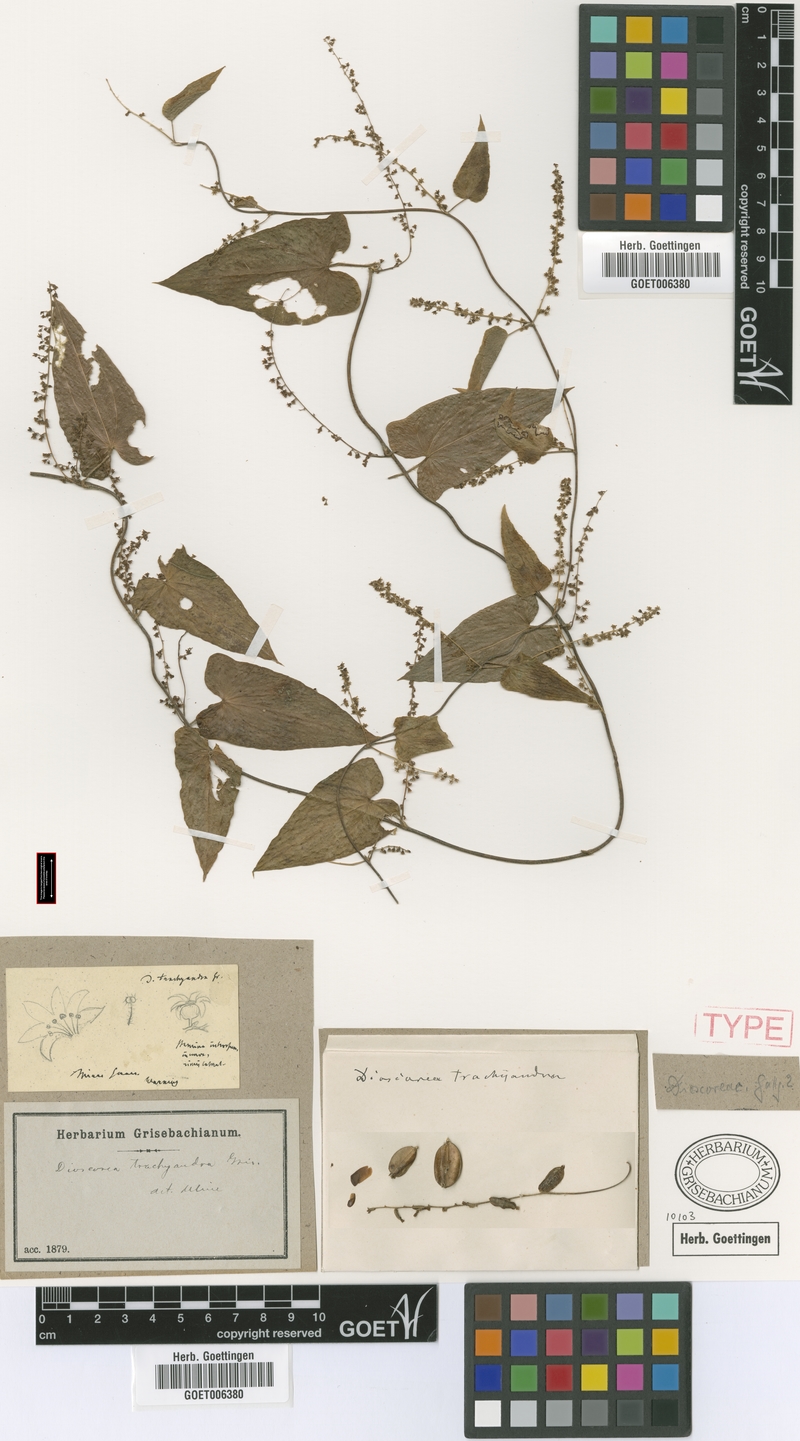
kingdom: Plantae
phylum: Tracheophyta
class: Liliopsida
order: Dioscoreales
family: Dioscoreaceae
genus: Dioscorea
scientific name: Dioscorea trachyandra
